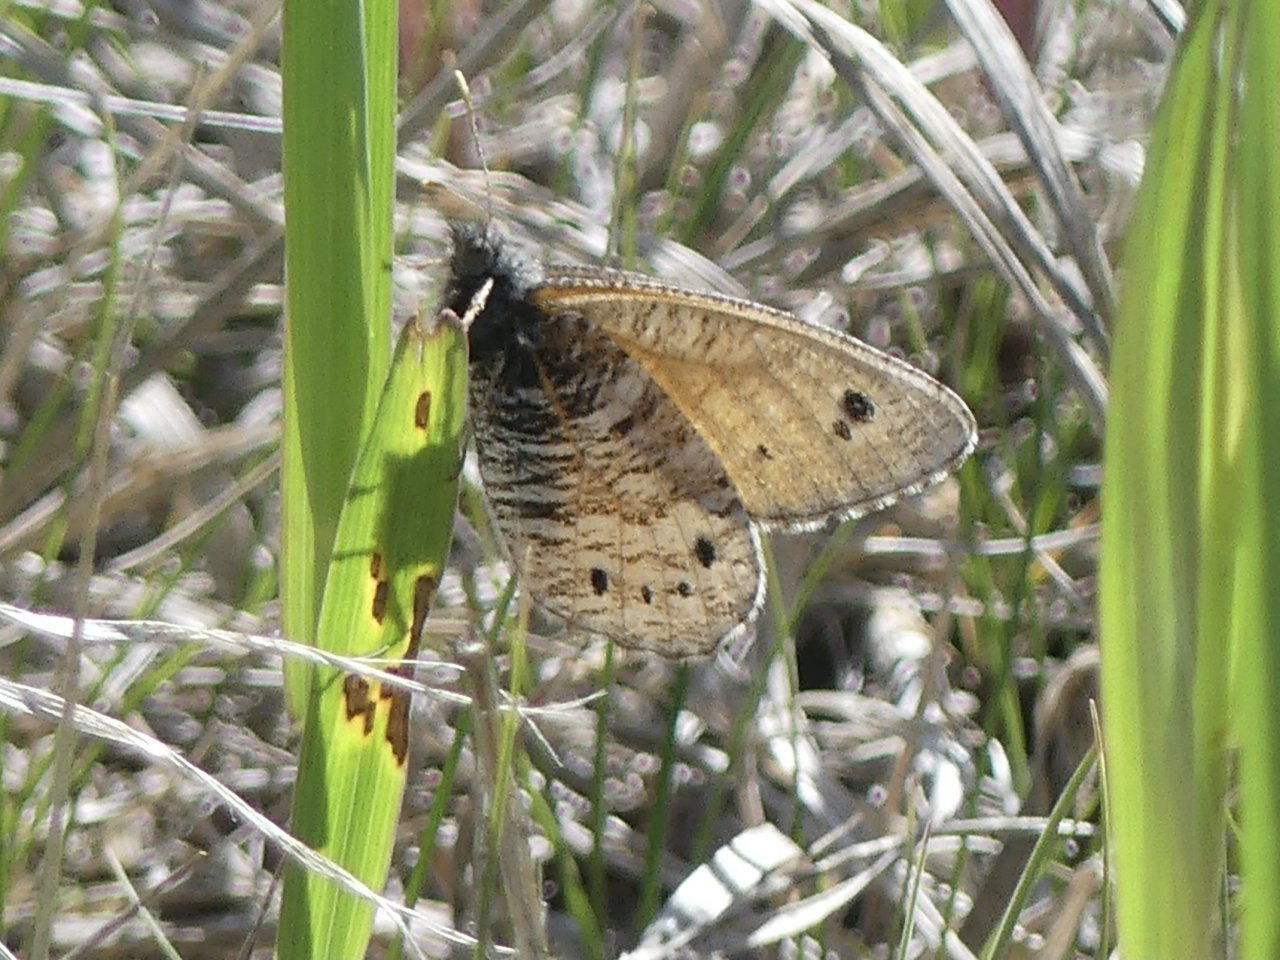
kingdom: Animalia
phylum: Arthropoda
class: Insecta
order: Lepidoptera
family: Nymphalidae
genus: Oeneis
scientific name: Oeneis uhleri
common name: Uhler's Arctic
